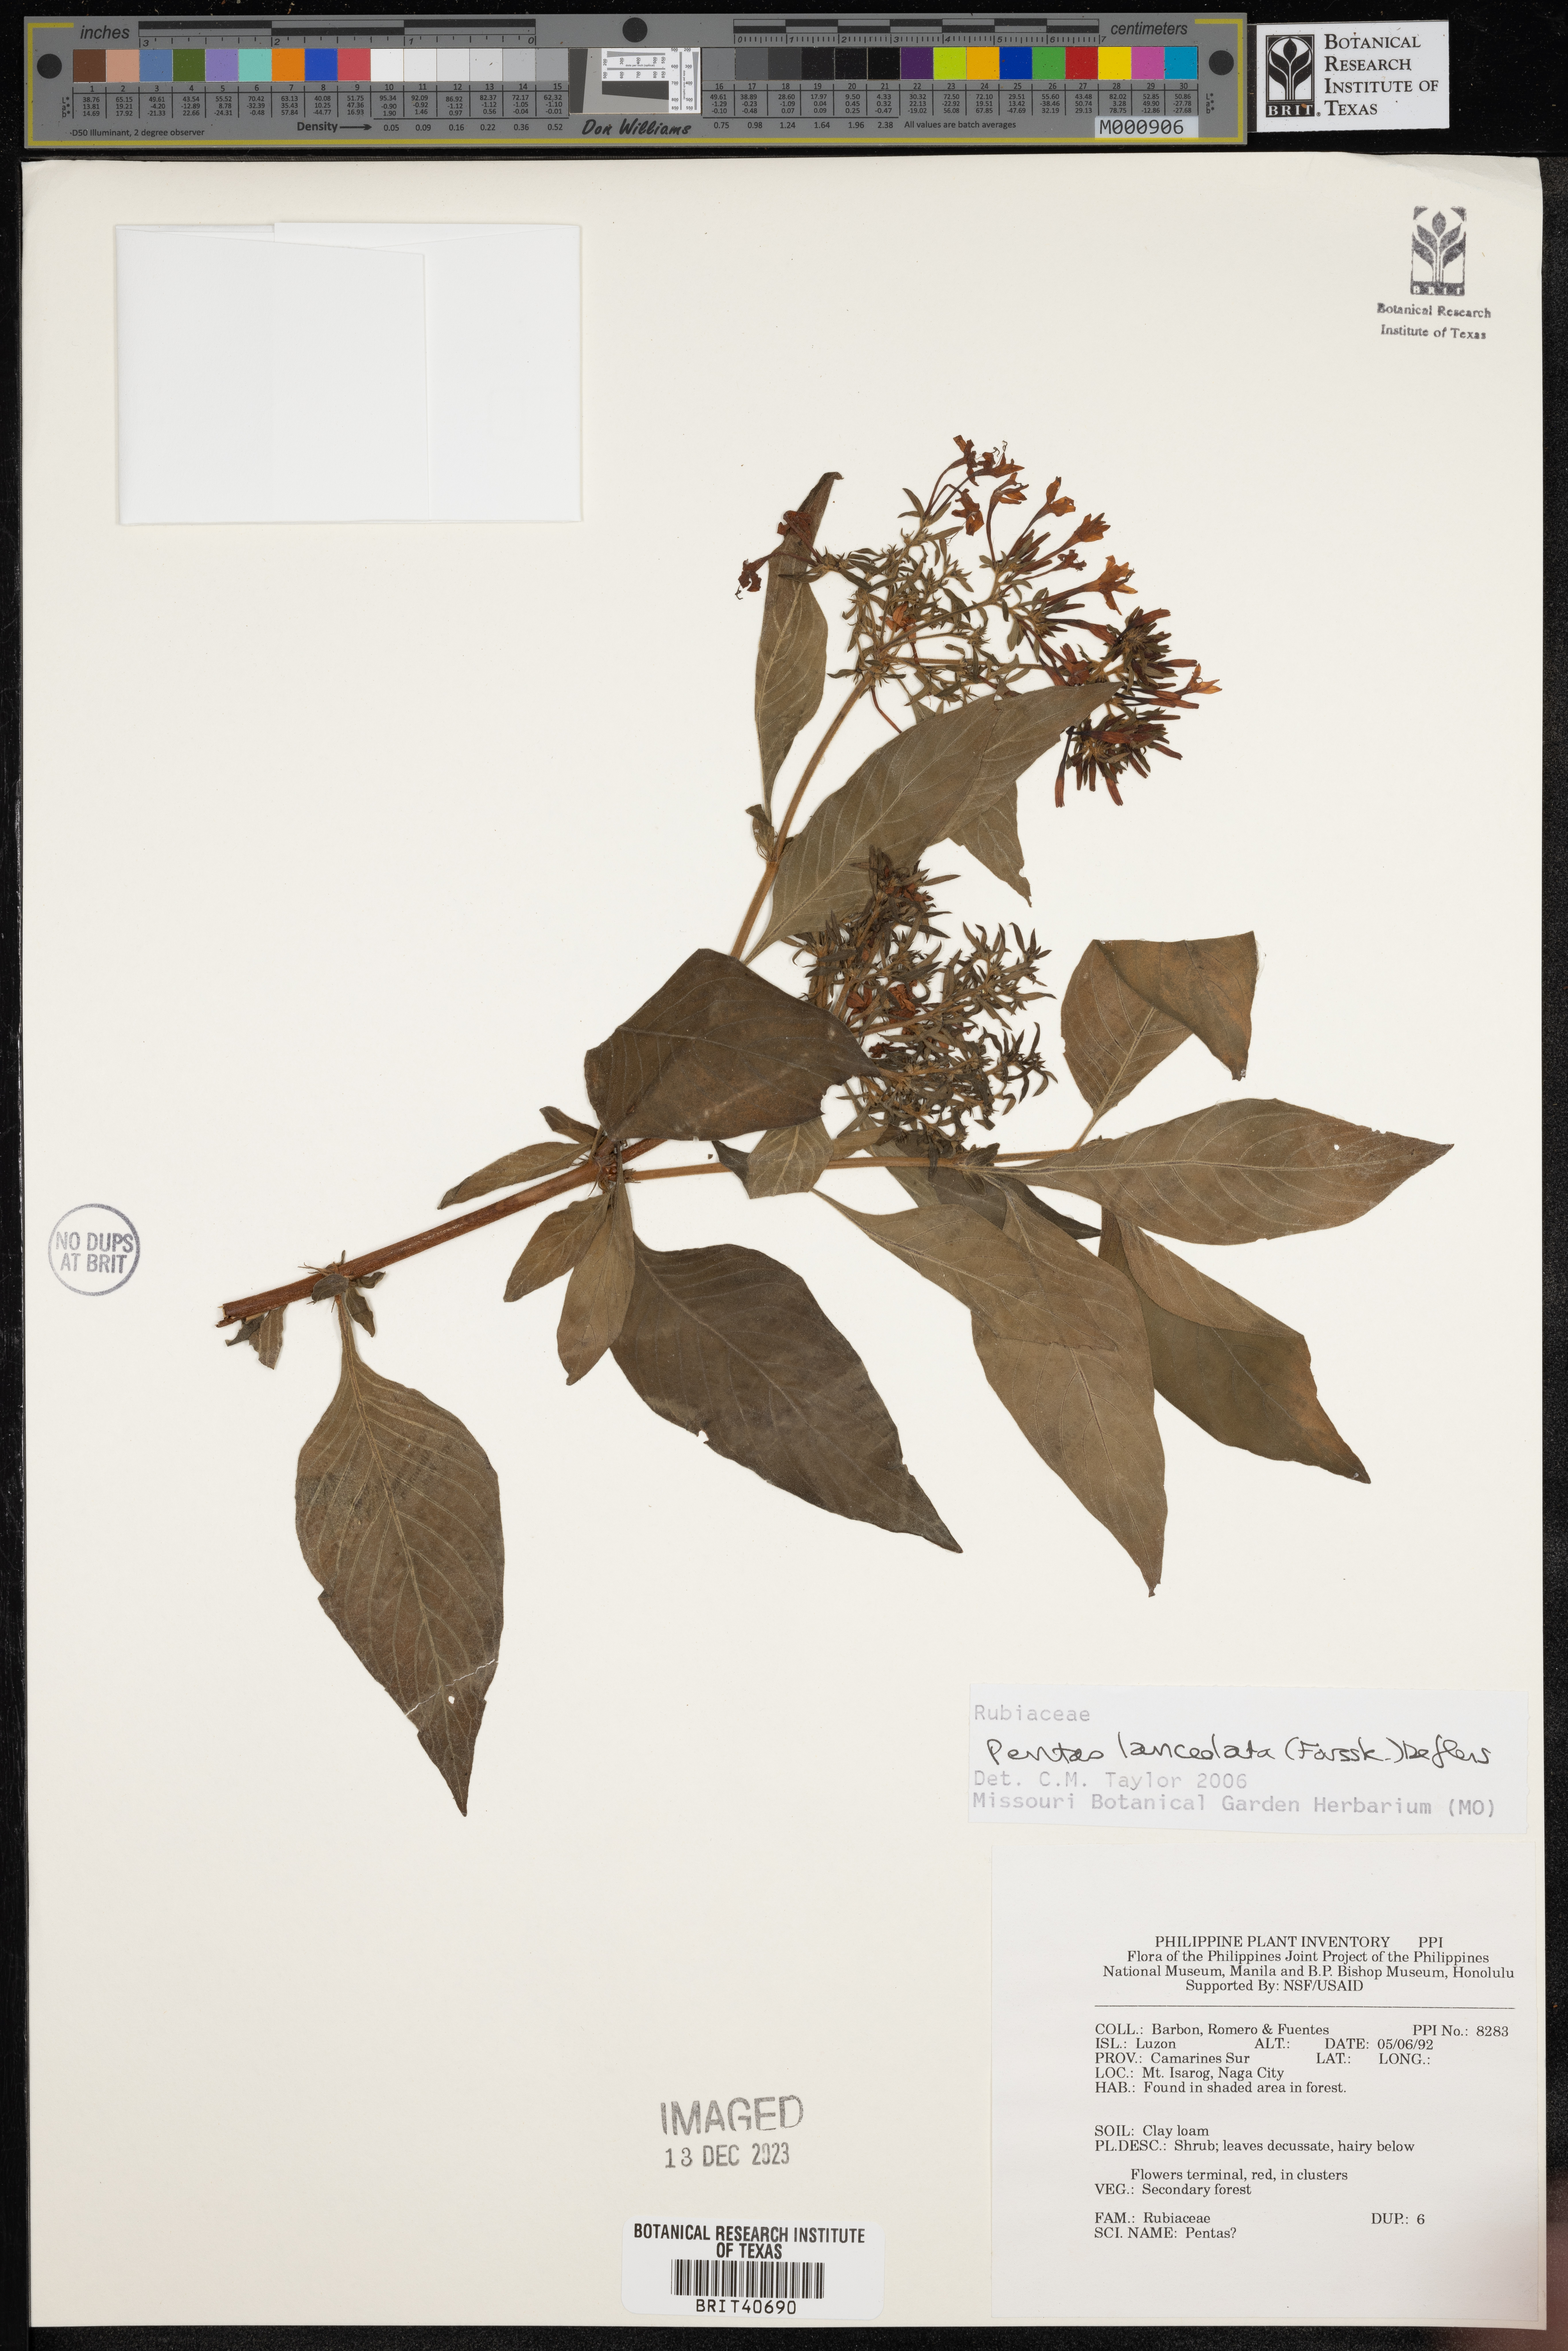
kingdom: Plantae
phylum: Tracheophyta
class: Magnoliopsida
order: Gentianales
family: Rubiaceae
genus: Pentas
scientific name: Pentas lanceolata
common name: Egyptian starcluster
